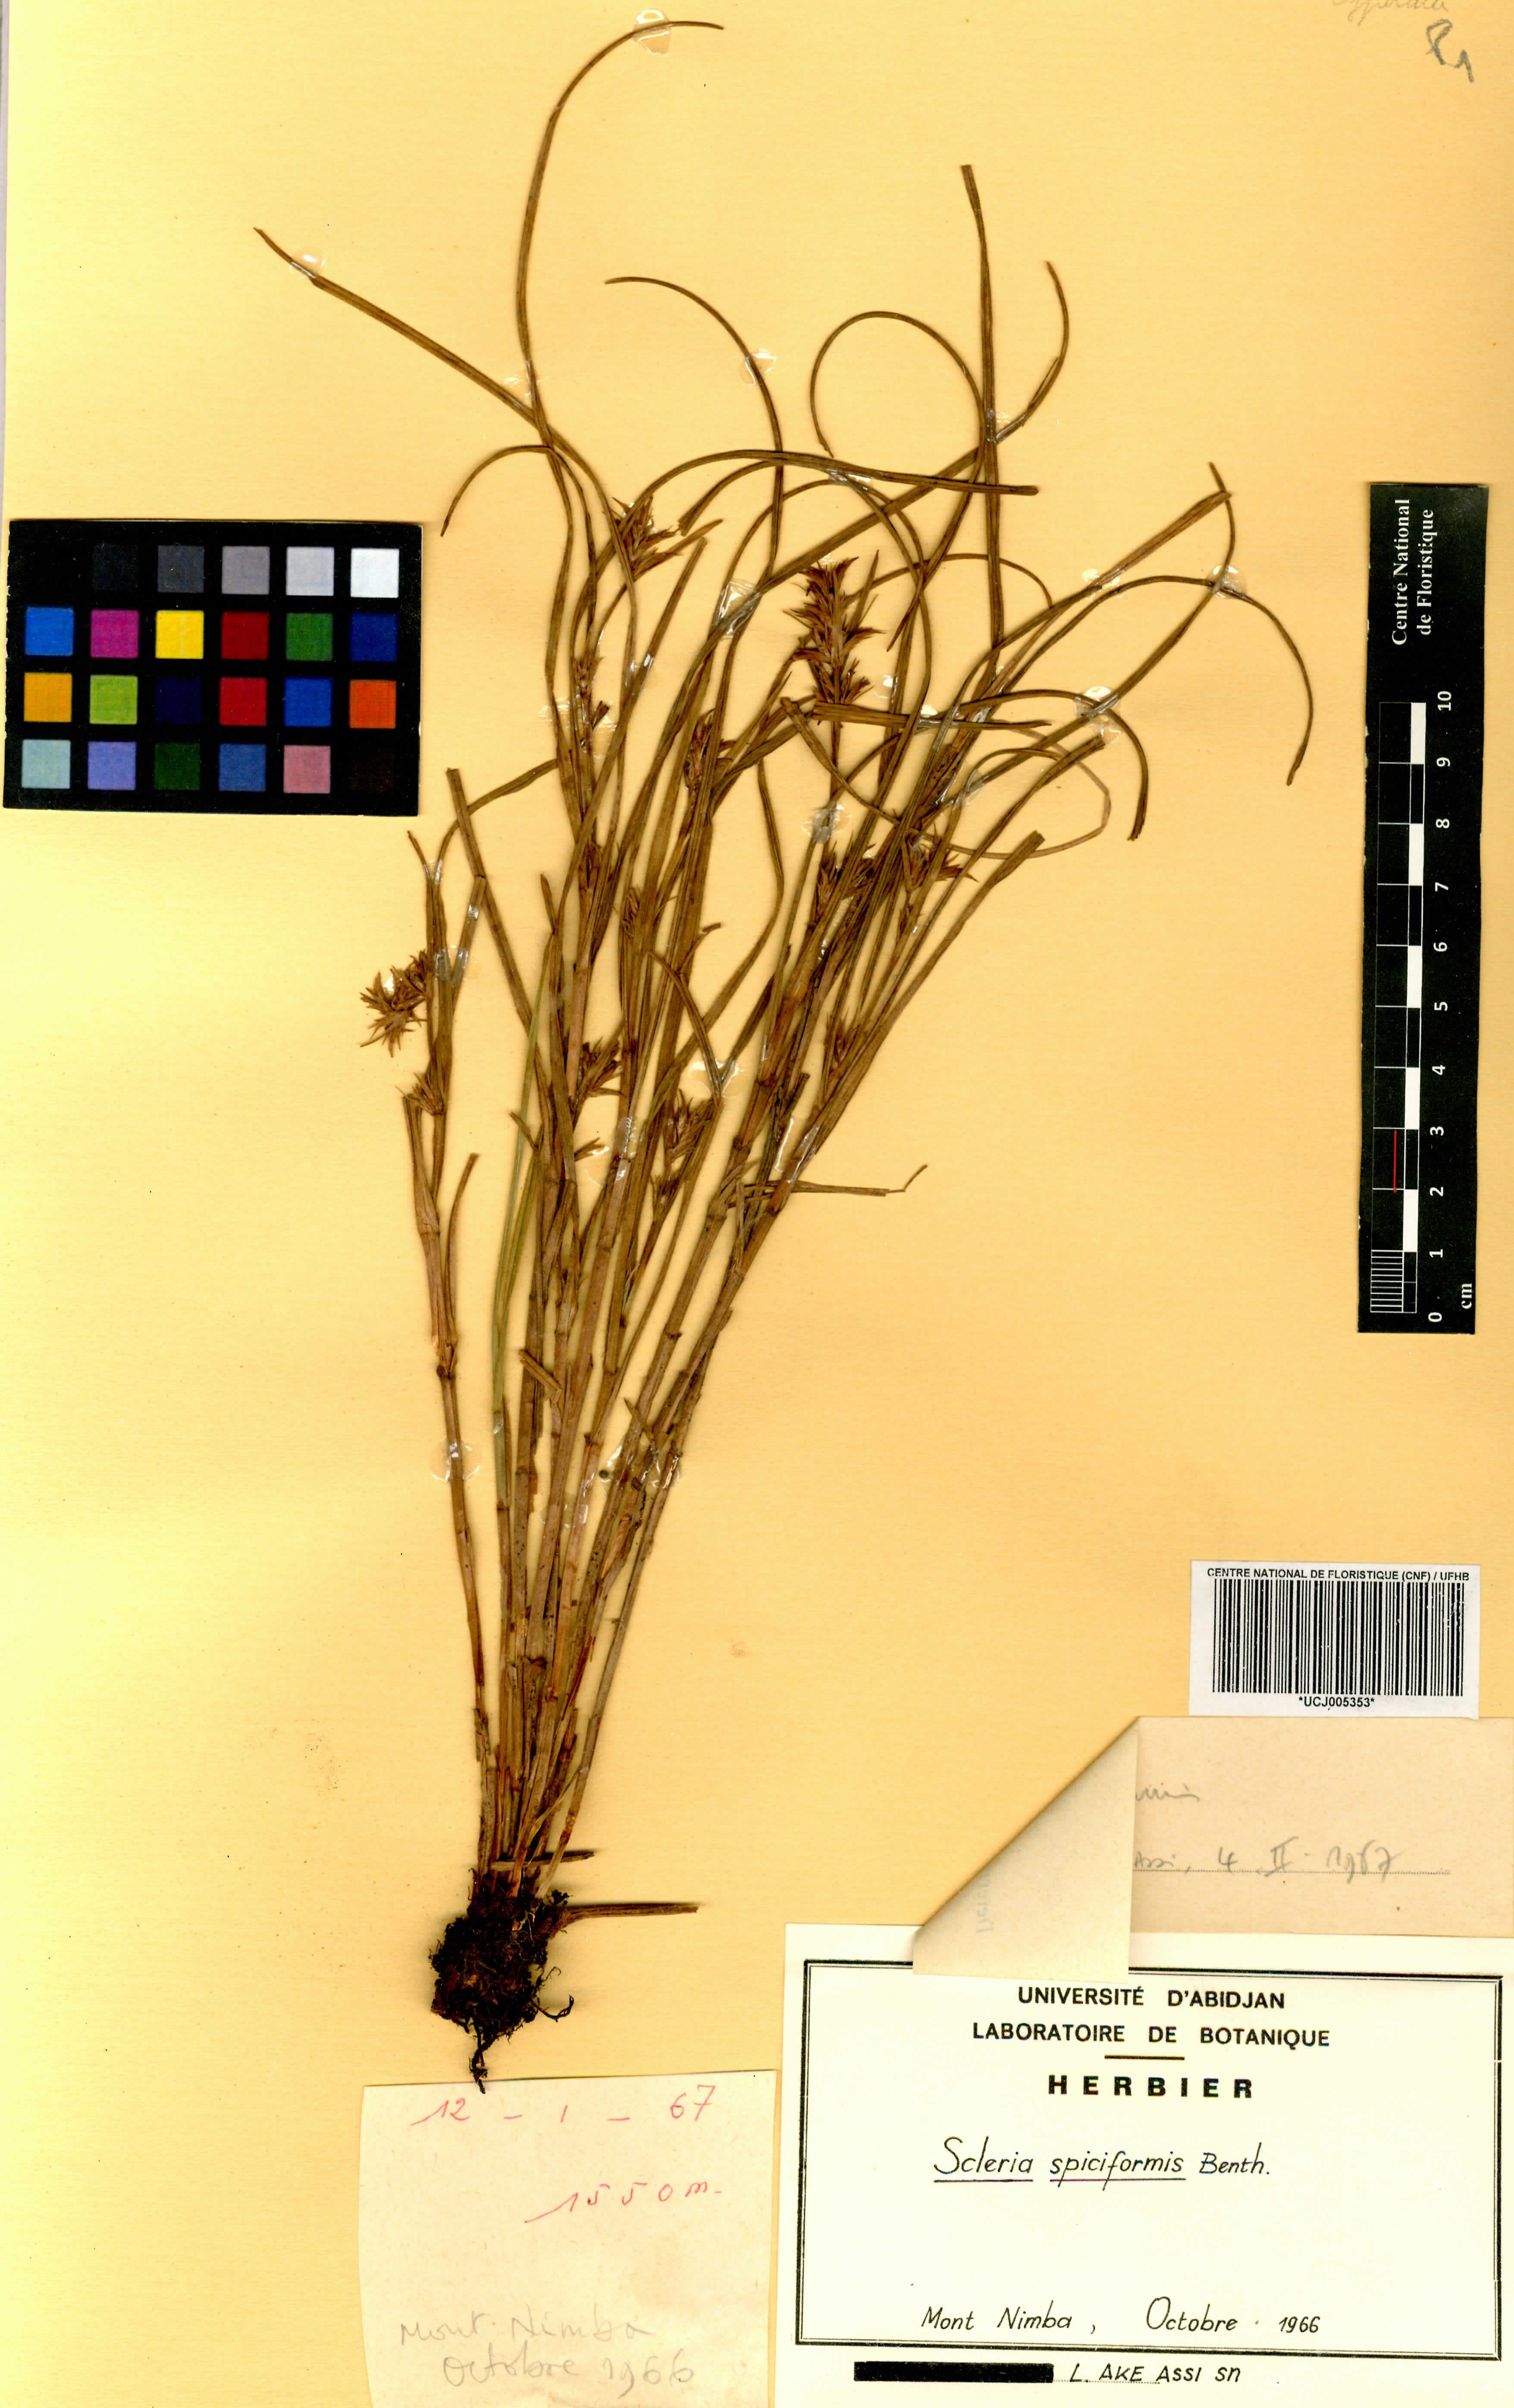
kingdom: Plantae
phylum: Tracheophyta
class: Liliopsida
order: Poales
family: Cyperaceae
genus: Scleria
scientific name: Scleria spiciformis
